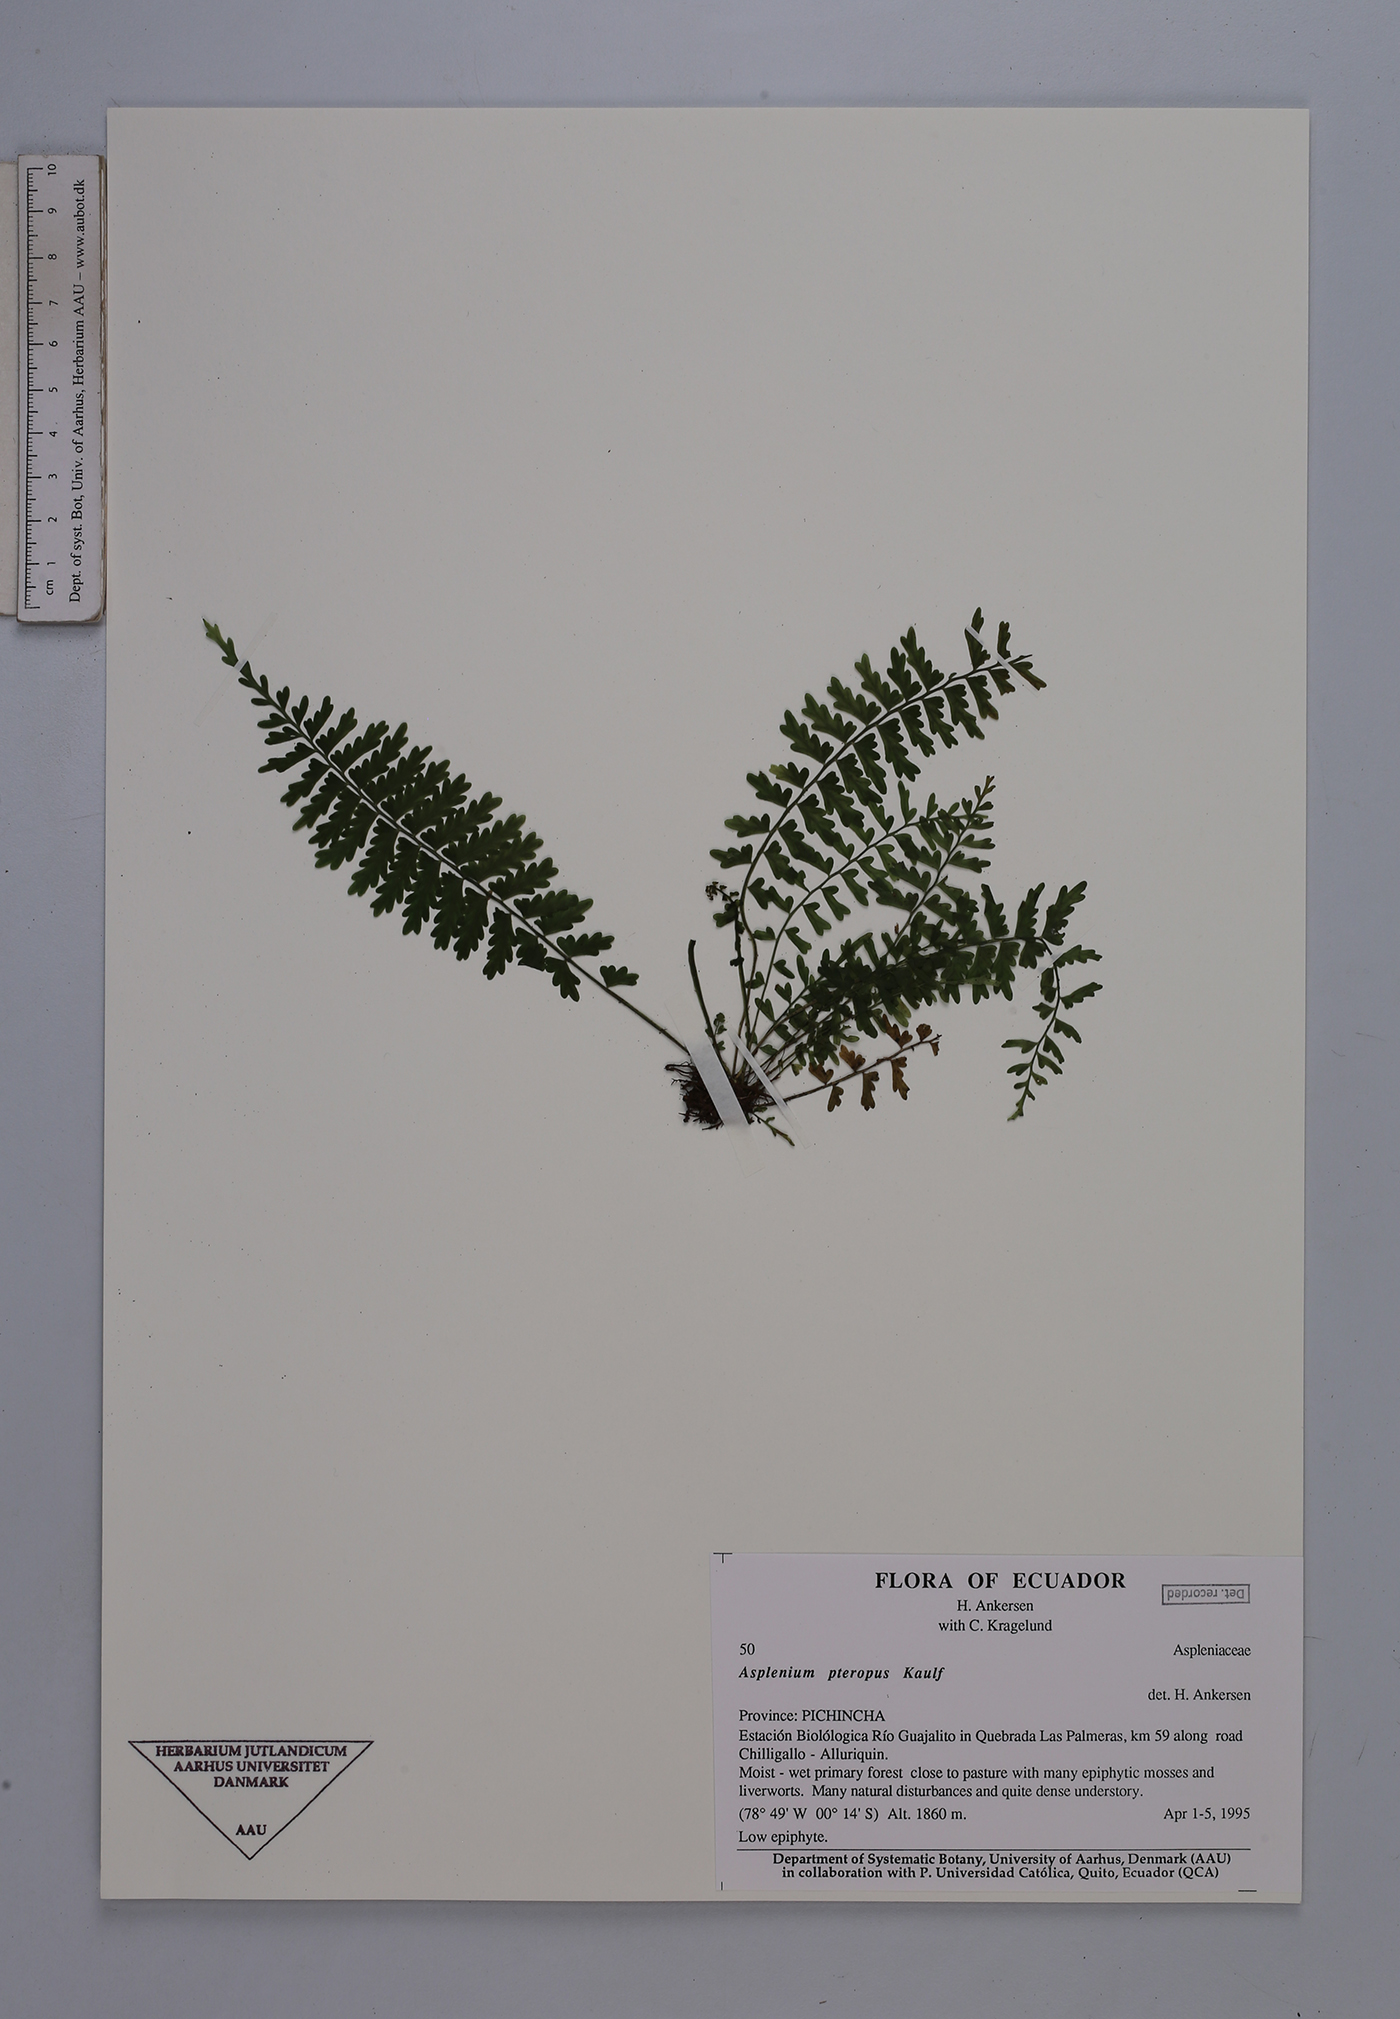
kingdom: Plantae
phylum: Tracheophyta
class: Polypodiopsida
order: Polypodiales
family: Aspleniaceae
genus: Asplenium
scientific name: Asplenium pteropus
